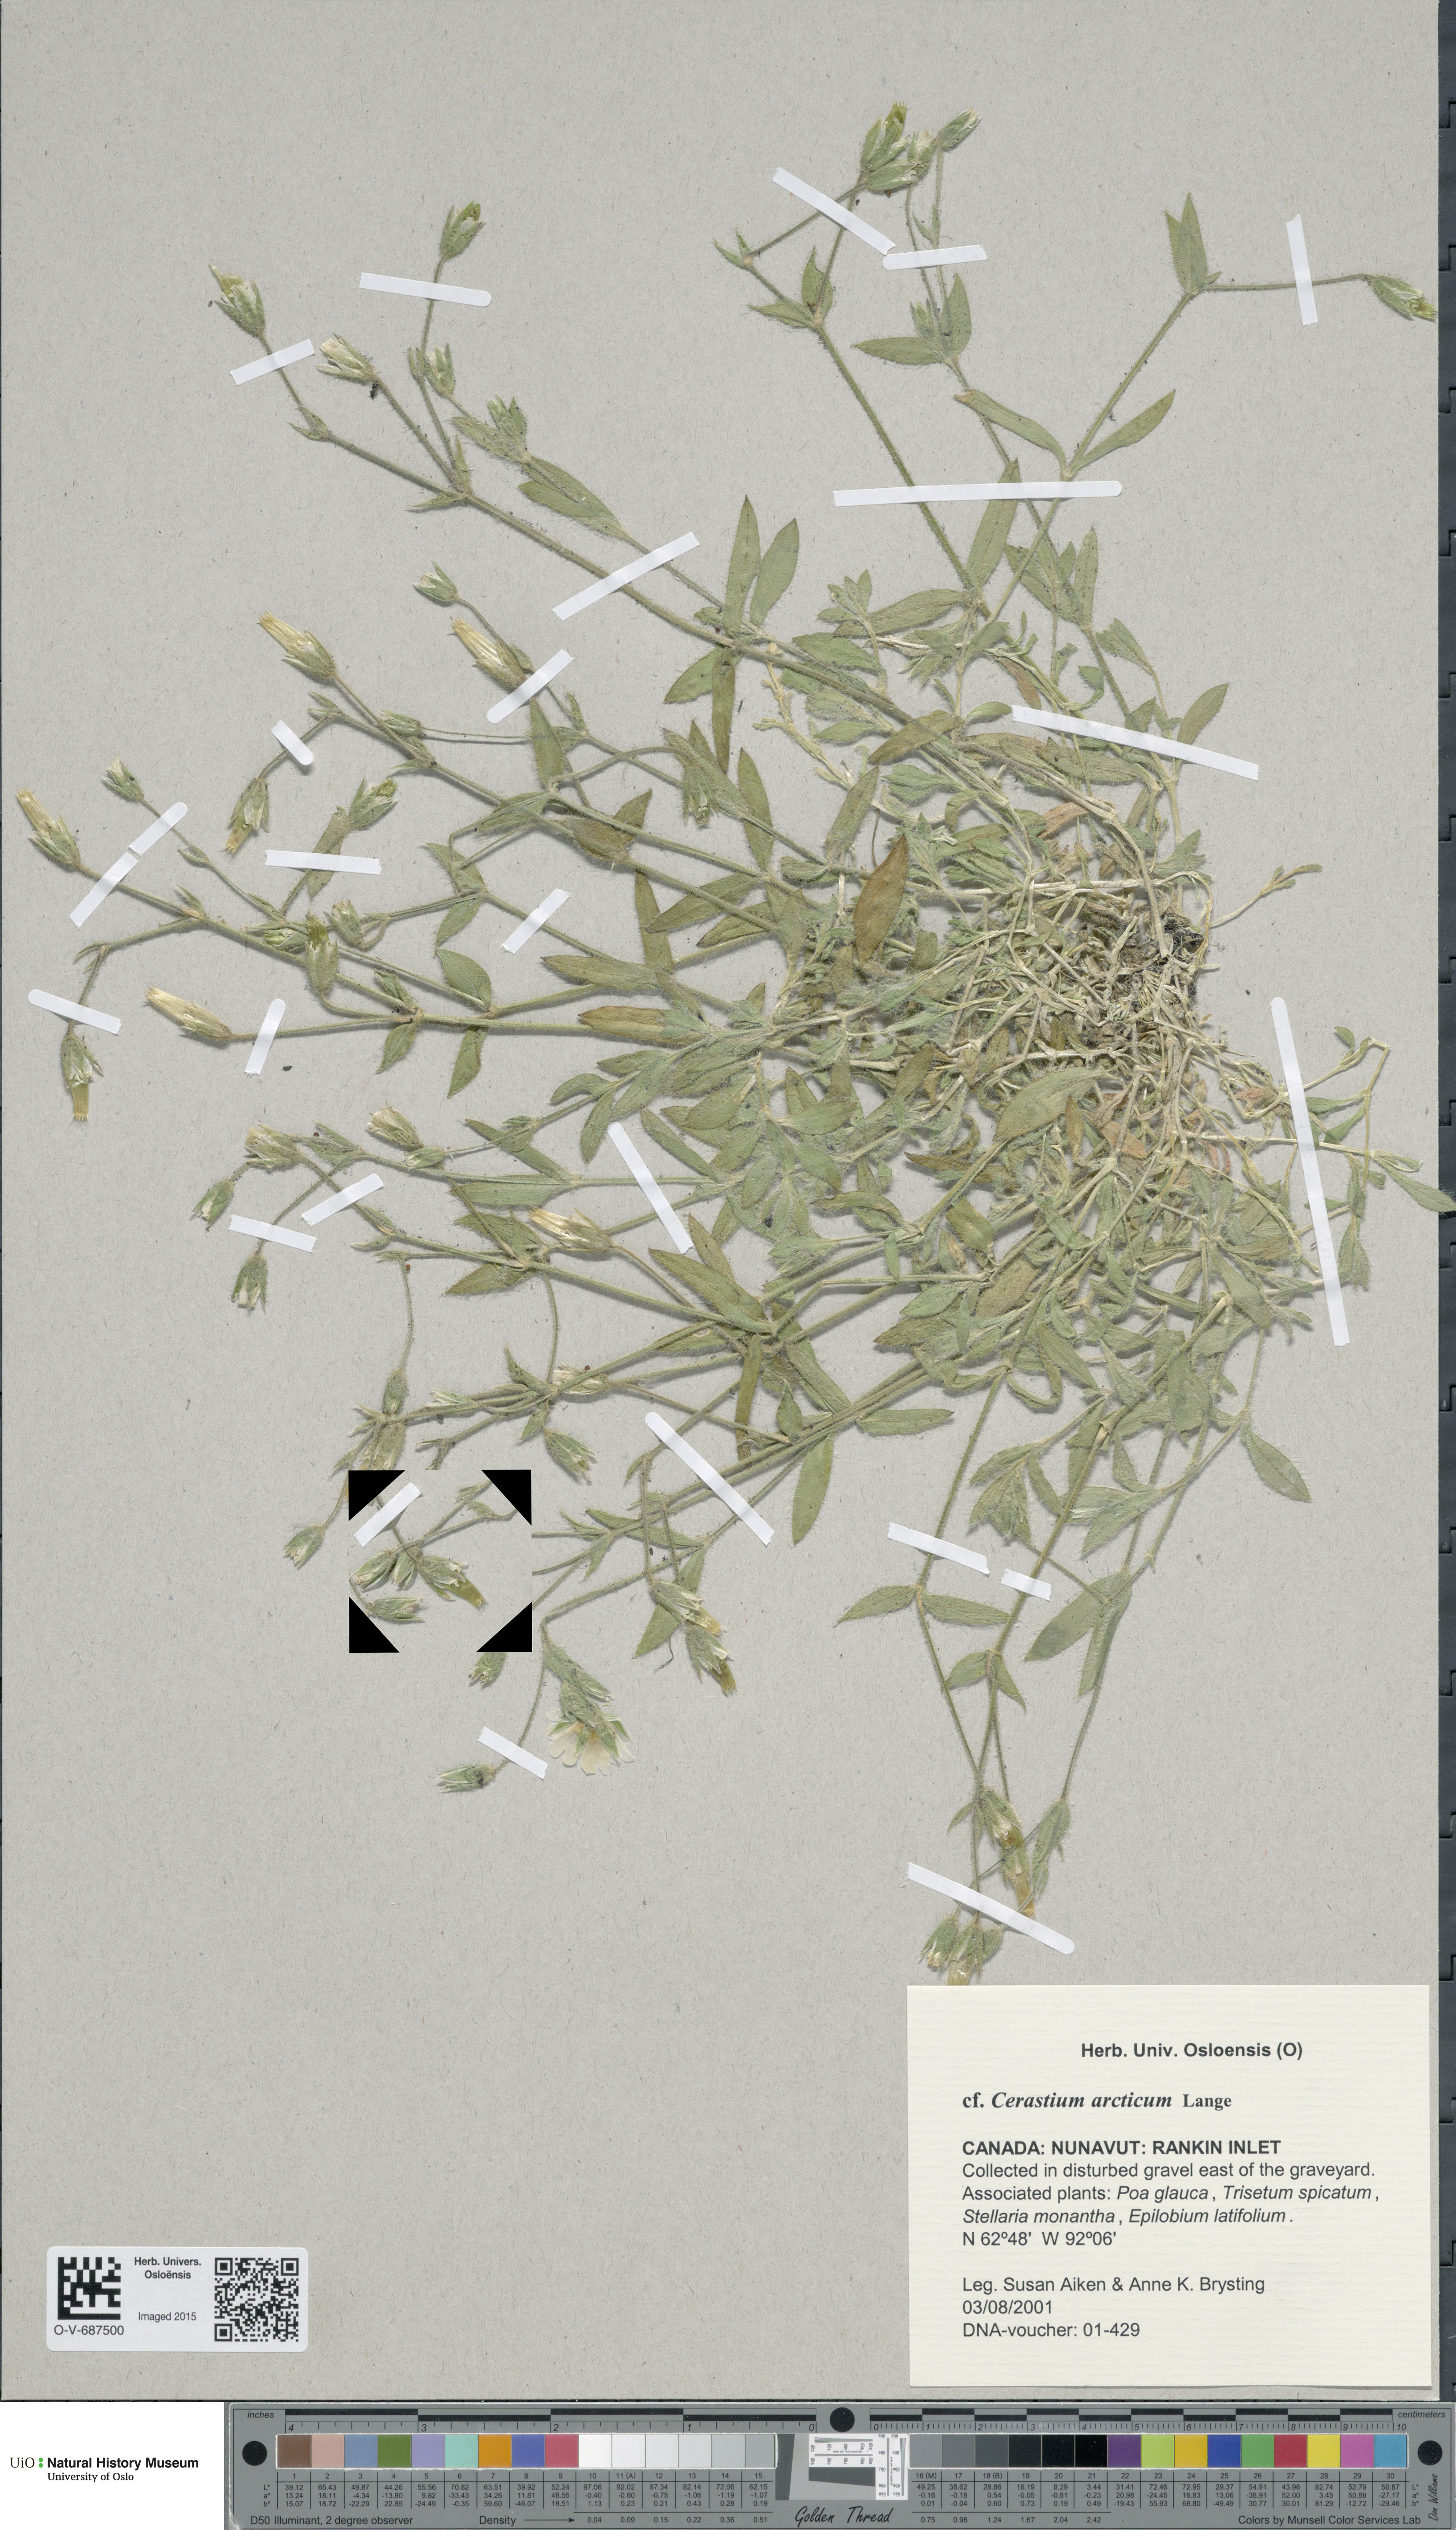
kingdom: Plantae
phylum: Tracheophyta
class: Magnoliopsida
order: Caryophyllales
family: Caryophyllaceae
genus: Cerastium
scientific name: Cerastium arcticum
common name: Arctic mouse-ear
